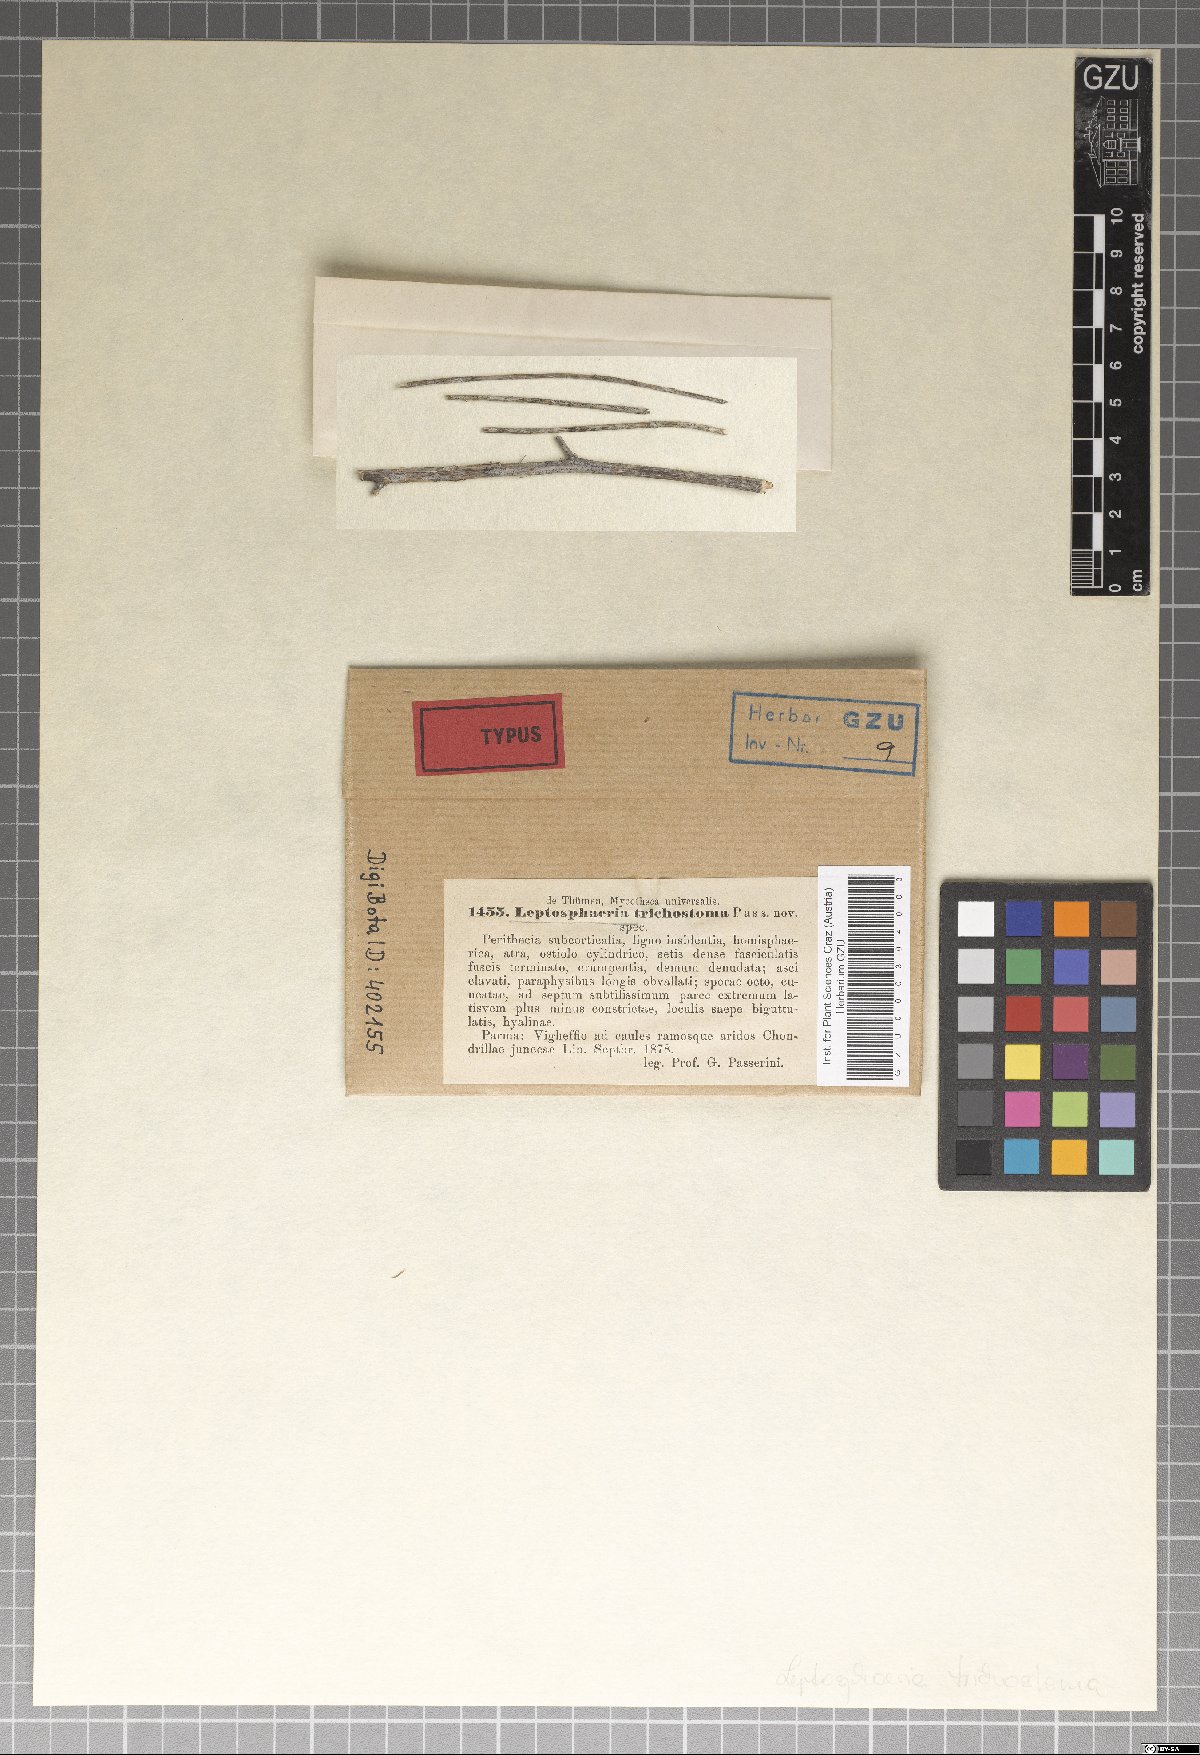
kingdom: Fungi
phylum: Ascomycota
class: Dothideomycetes
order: Dothideales
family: Saccotheciaceae
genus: Metasphaeria
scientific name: Metasphaeria trichostoma
